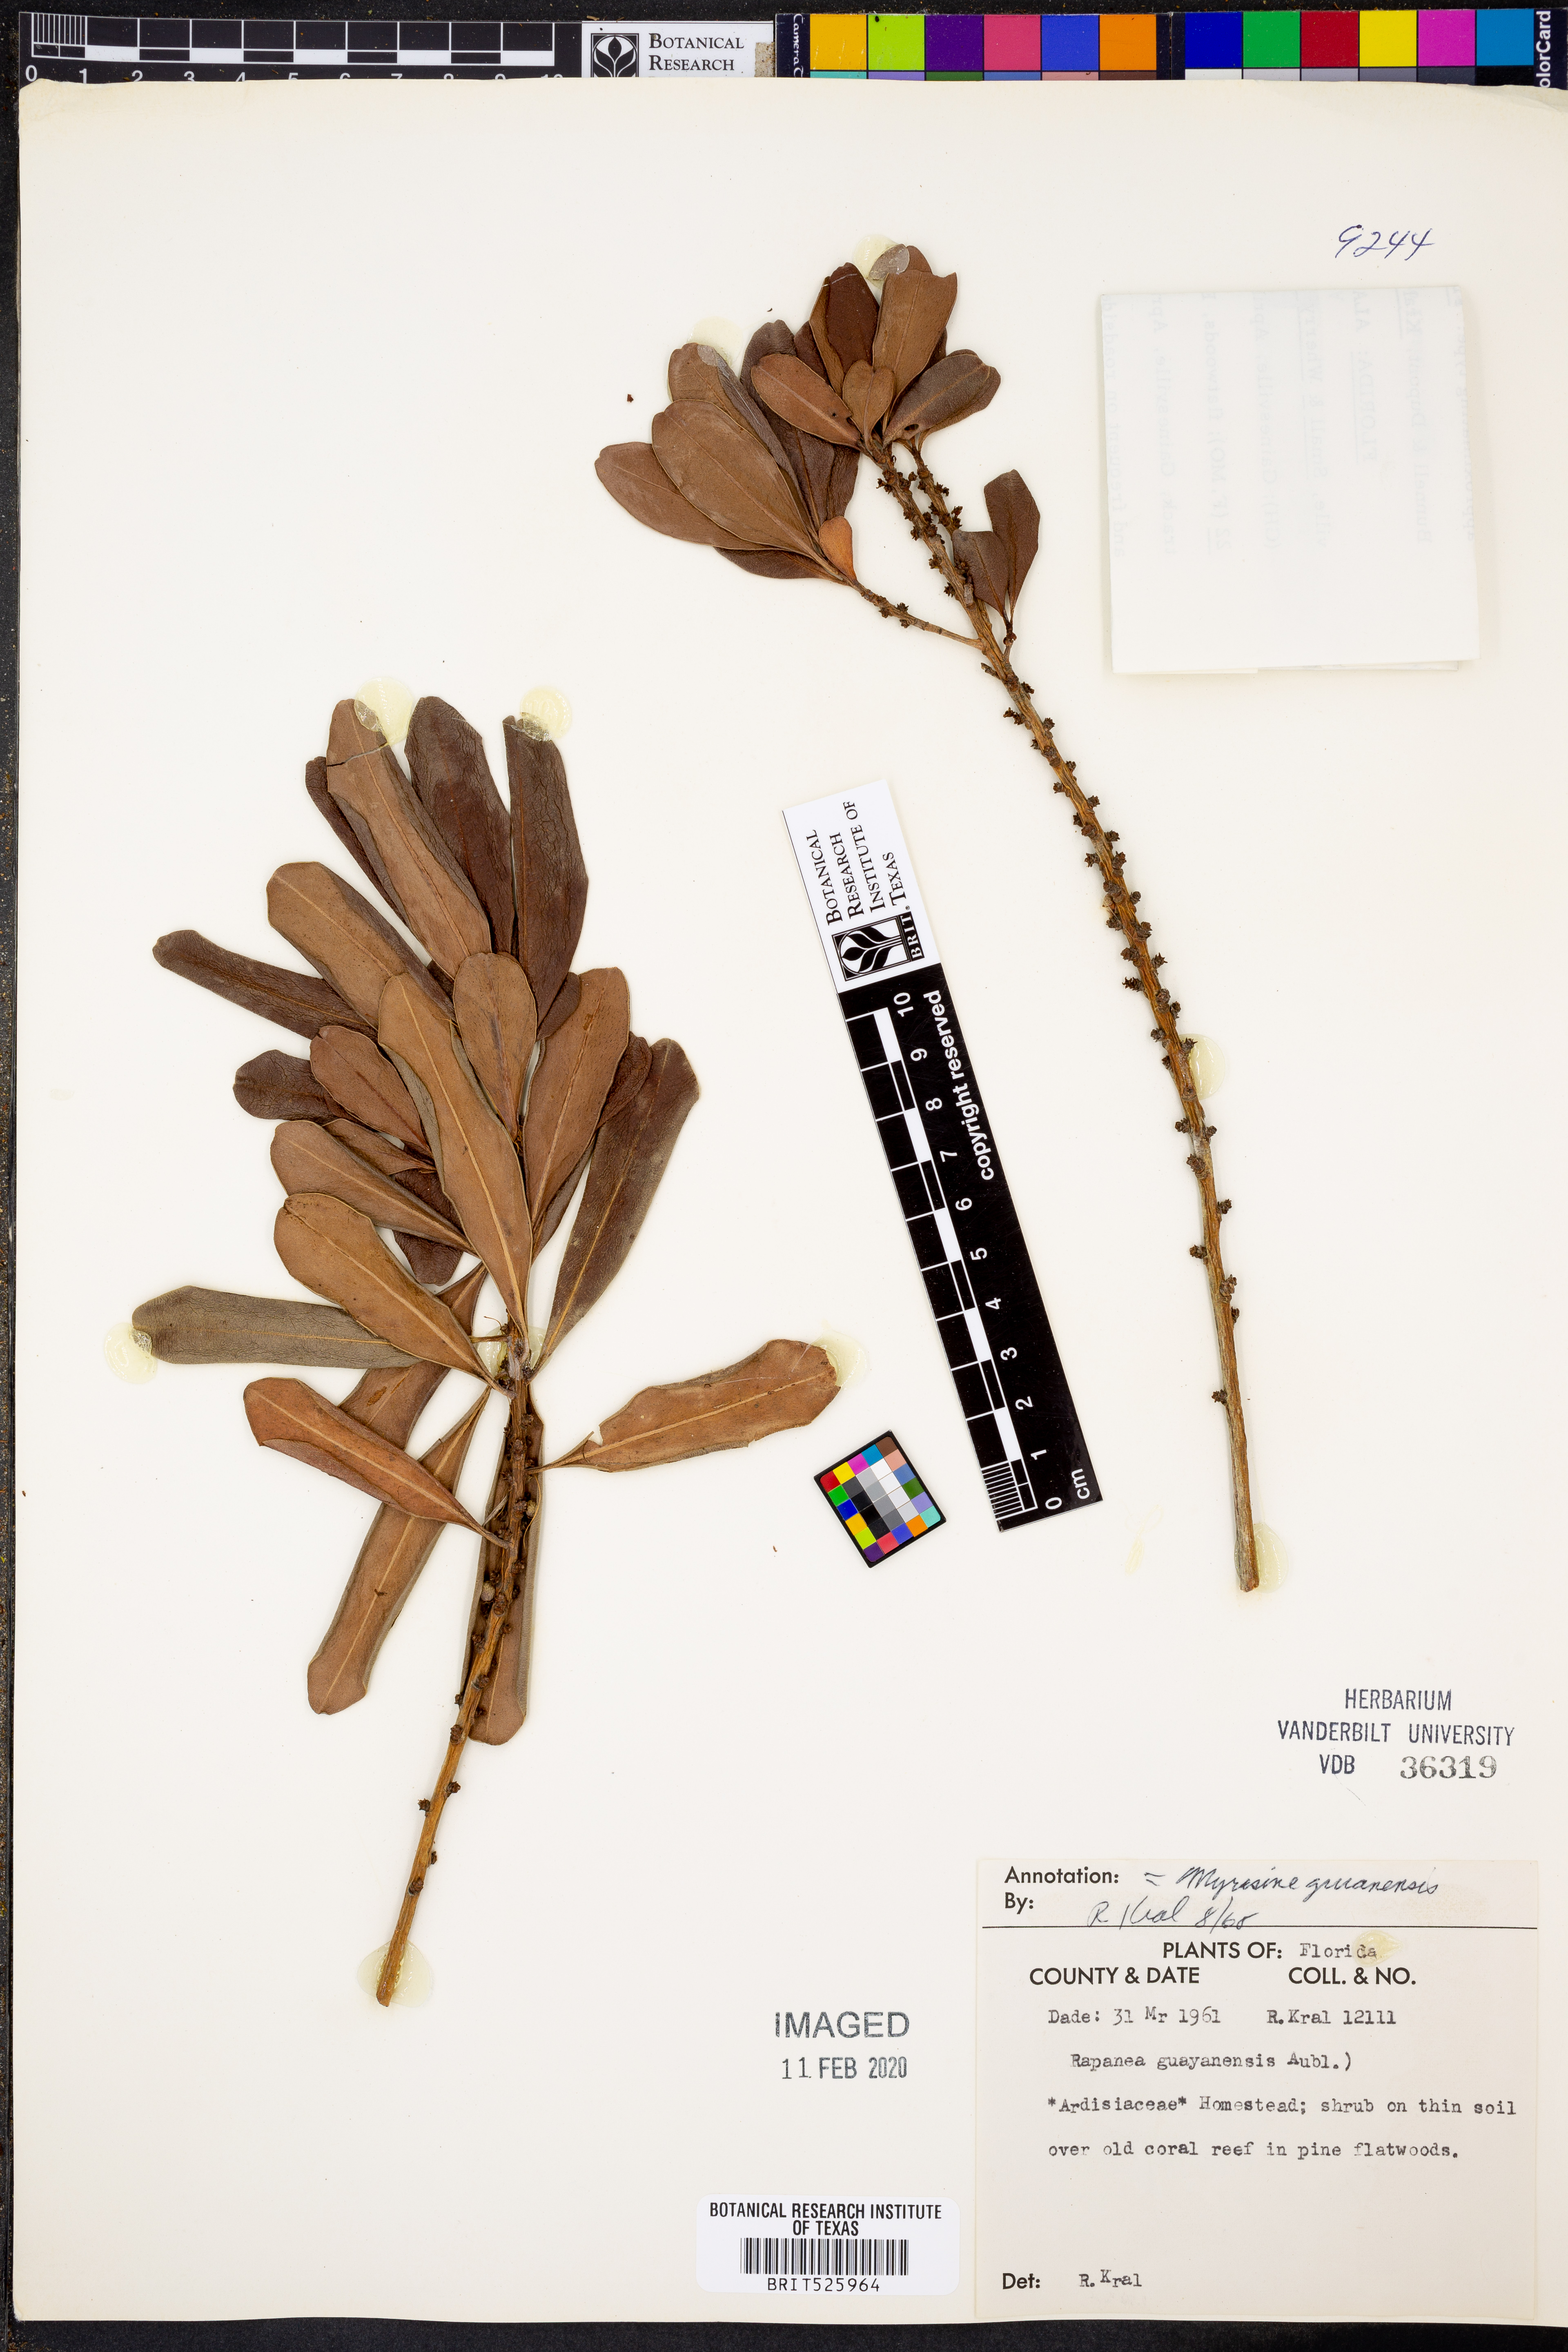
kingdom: Plantae
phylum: Tracheophyta
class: Magnoliopsida
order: Ericales
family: Primulaceae
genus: Myrsine
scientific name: Myrsine guianensis
